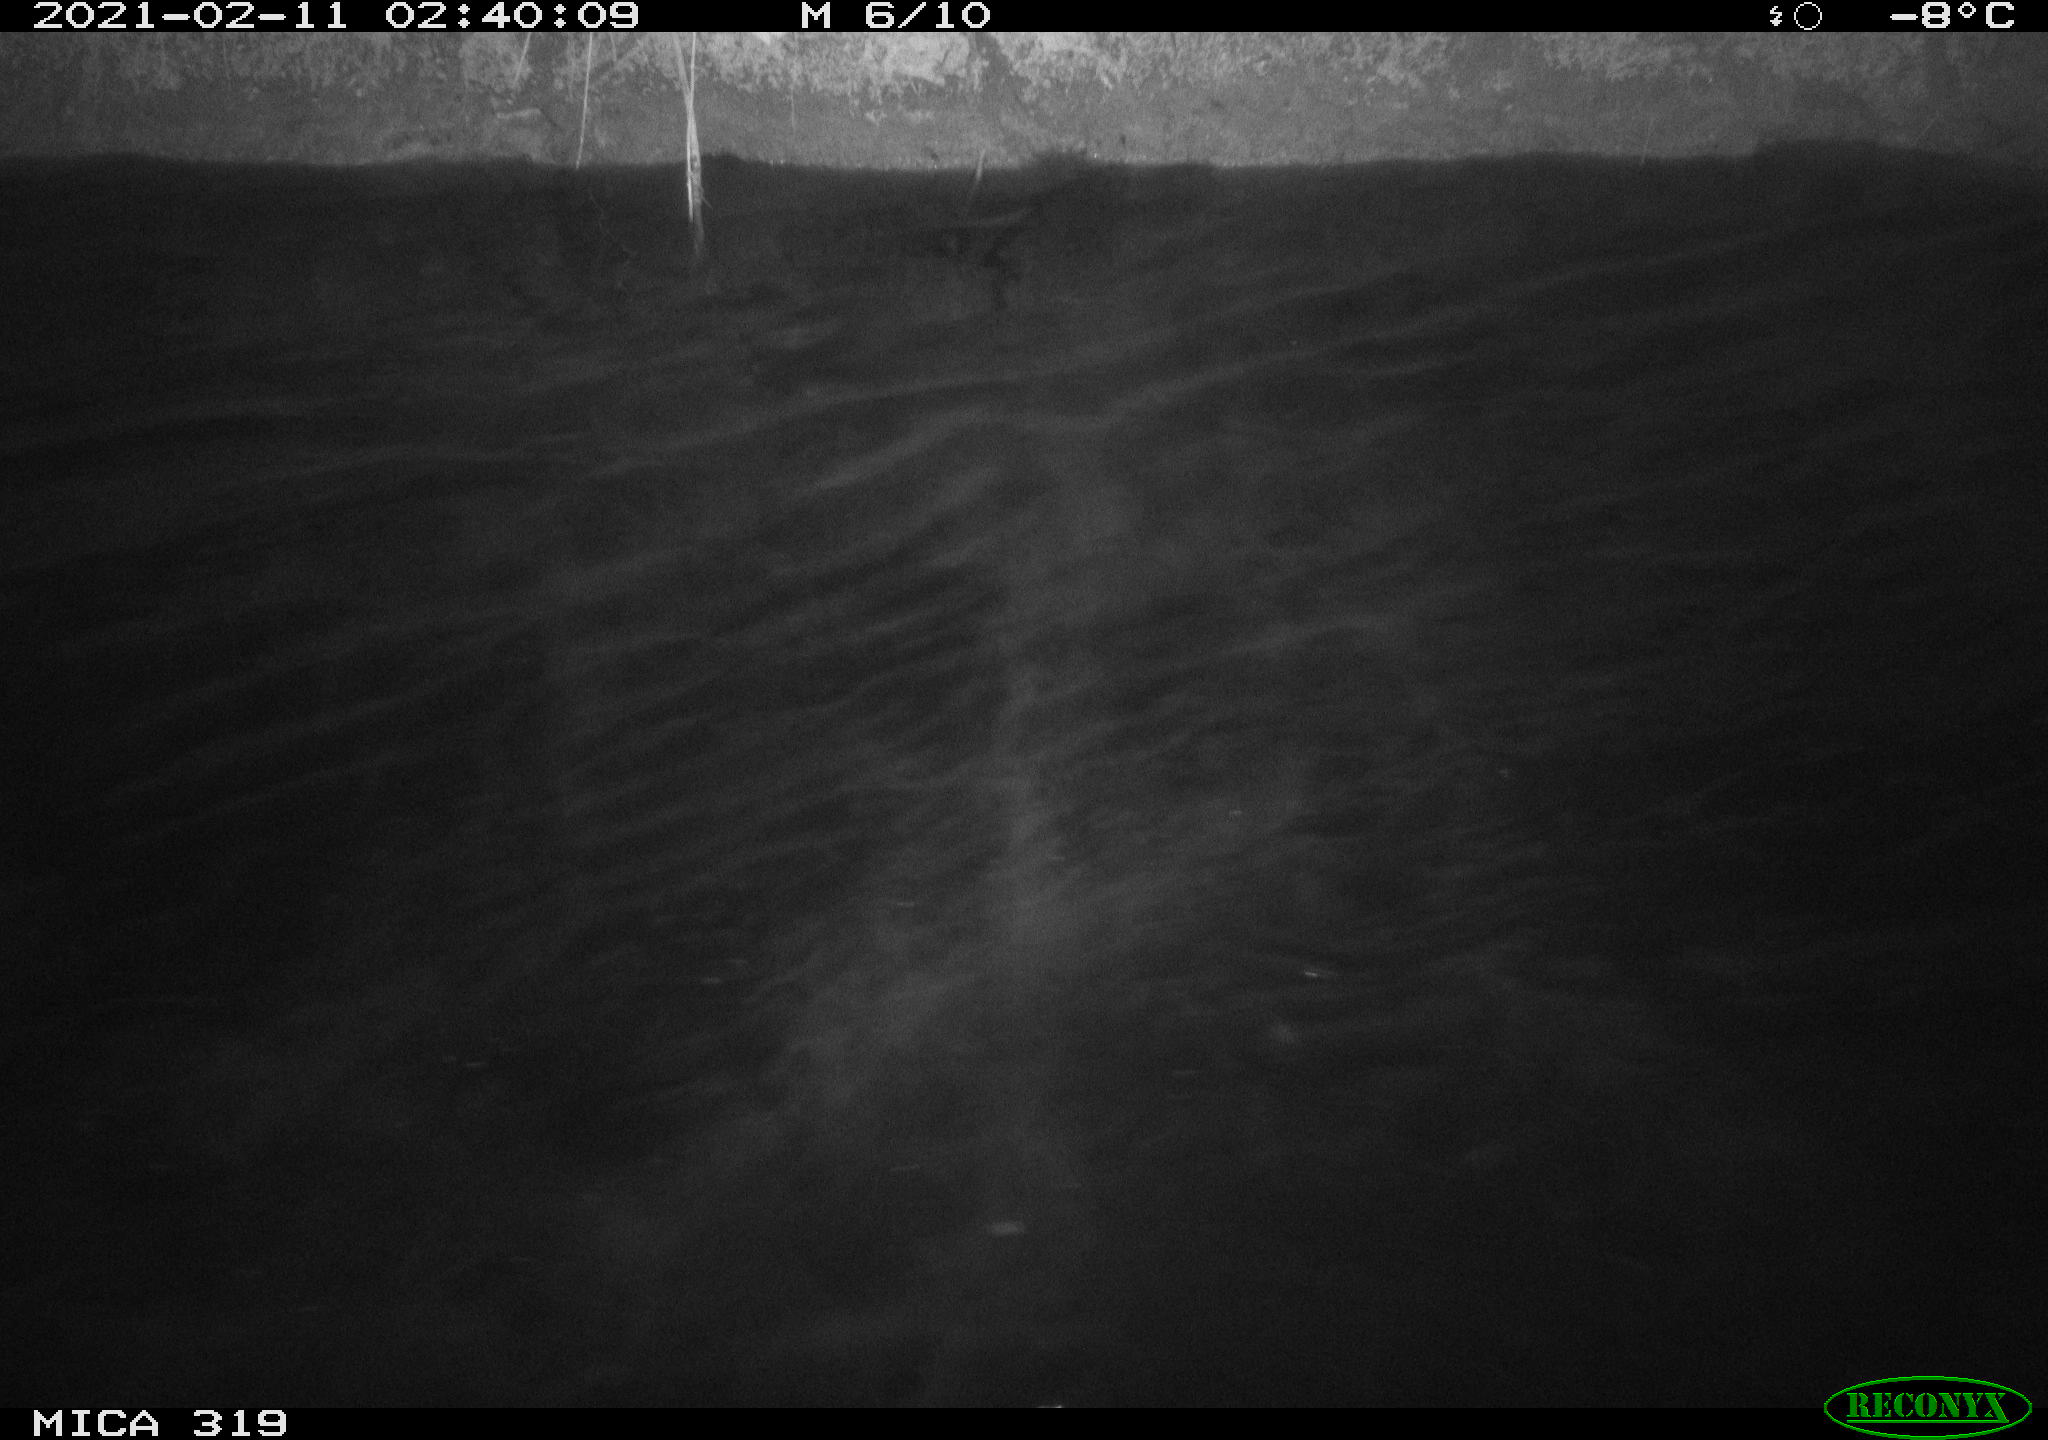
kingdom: Animalia
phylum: Chordata
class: Aves
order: Anseriformes
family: Anatidae
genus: Anas
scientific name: Anas platyrhynchos
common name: Mallard
